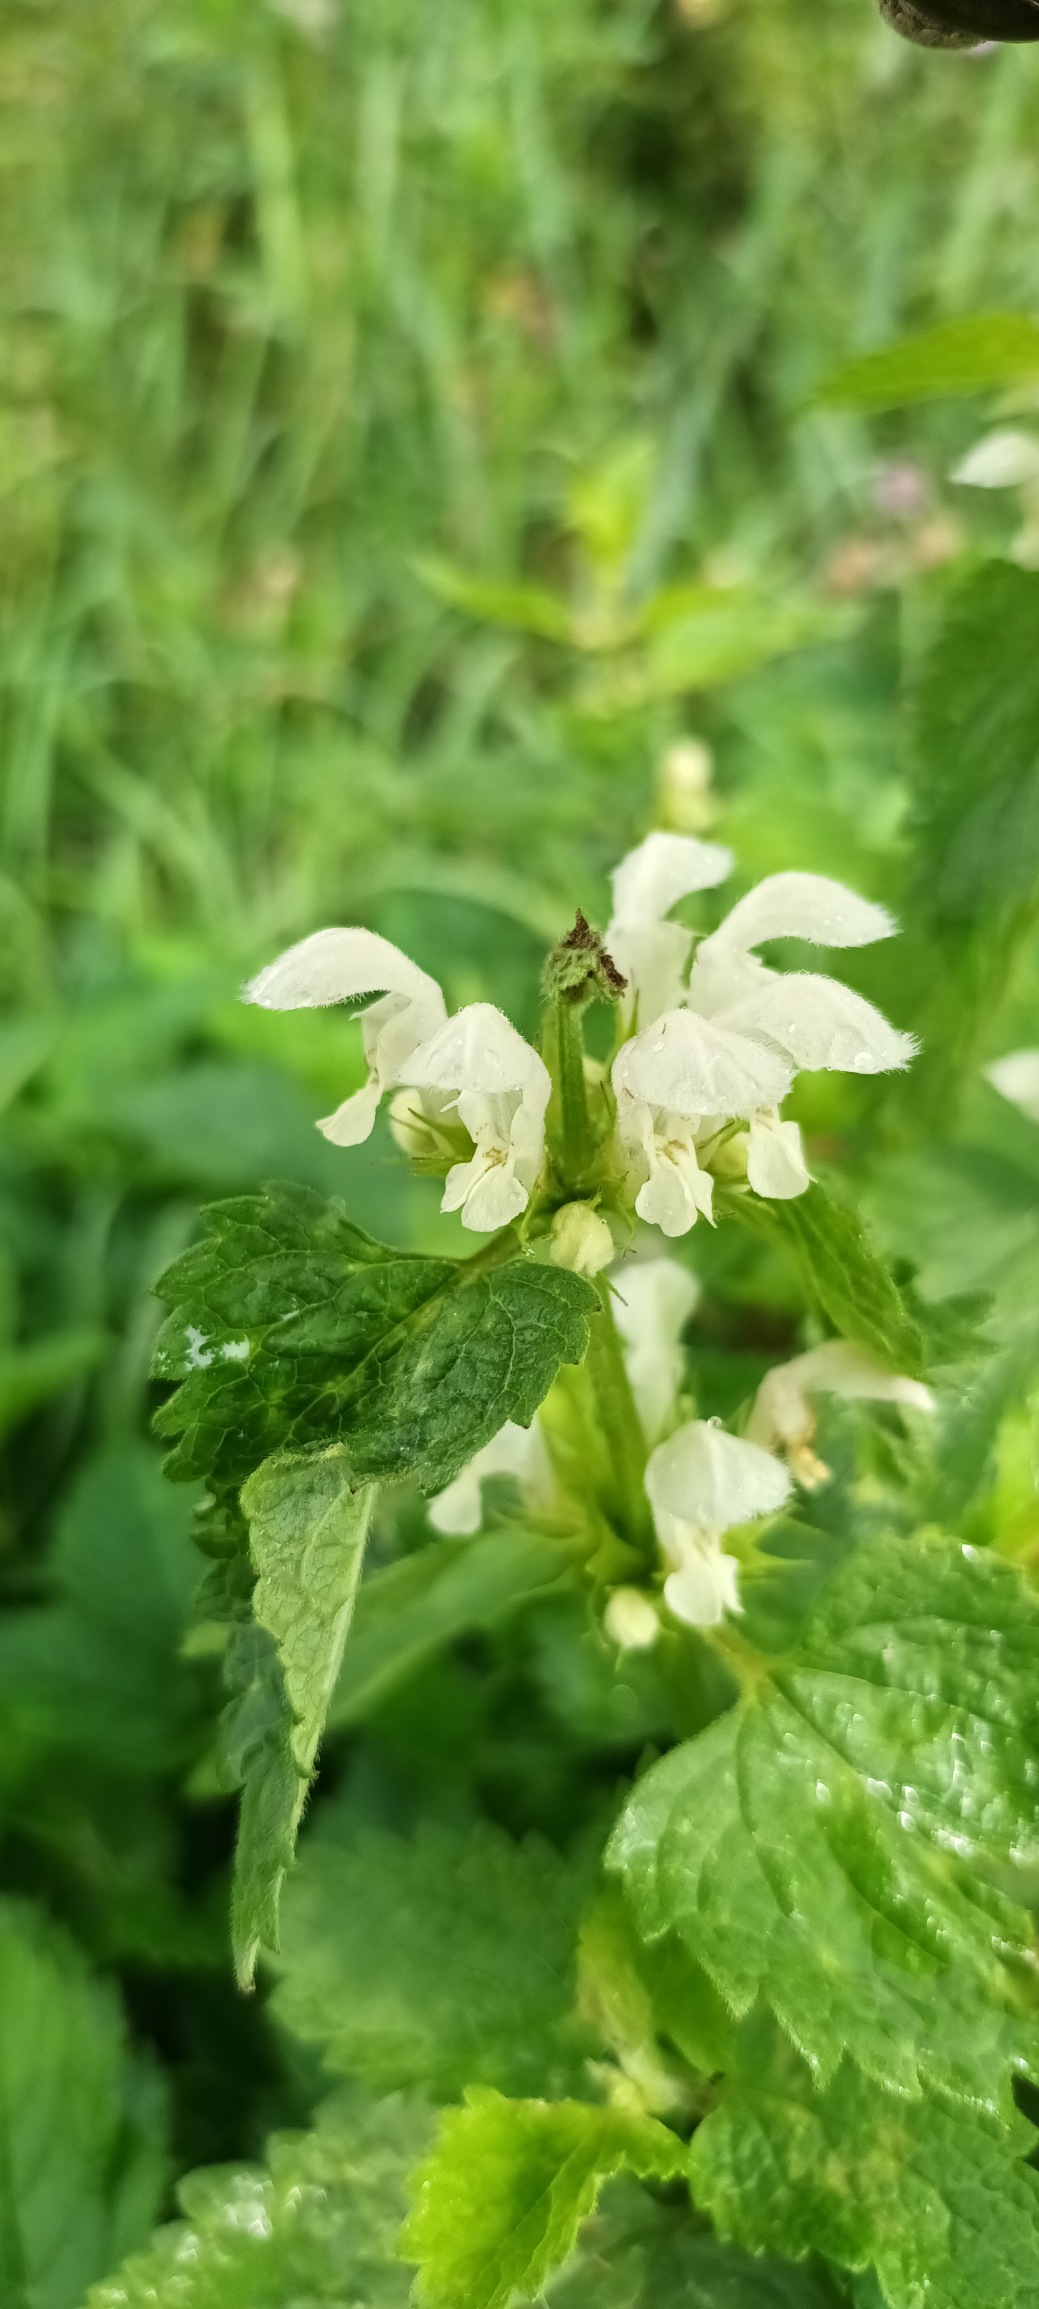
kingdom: Plantae
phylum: Tracheophyta
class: Magnoliopsida
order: Lamiales
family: Lamiaceae
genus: Lamium
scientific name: Lamium album
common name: Døvnælde
